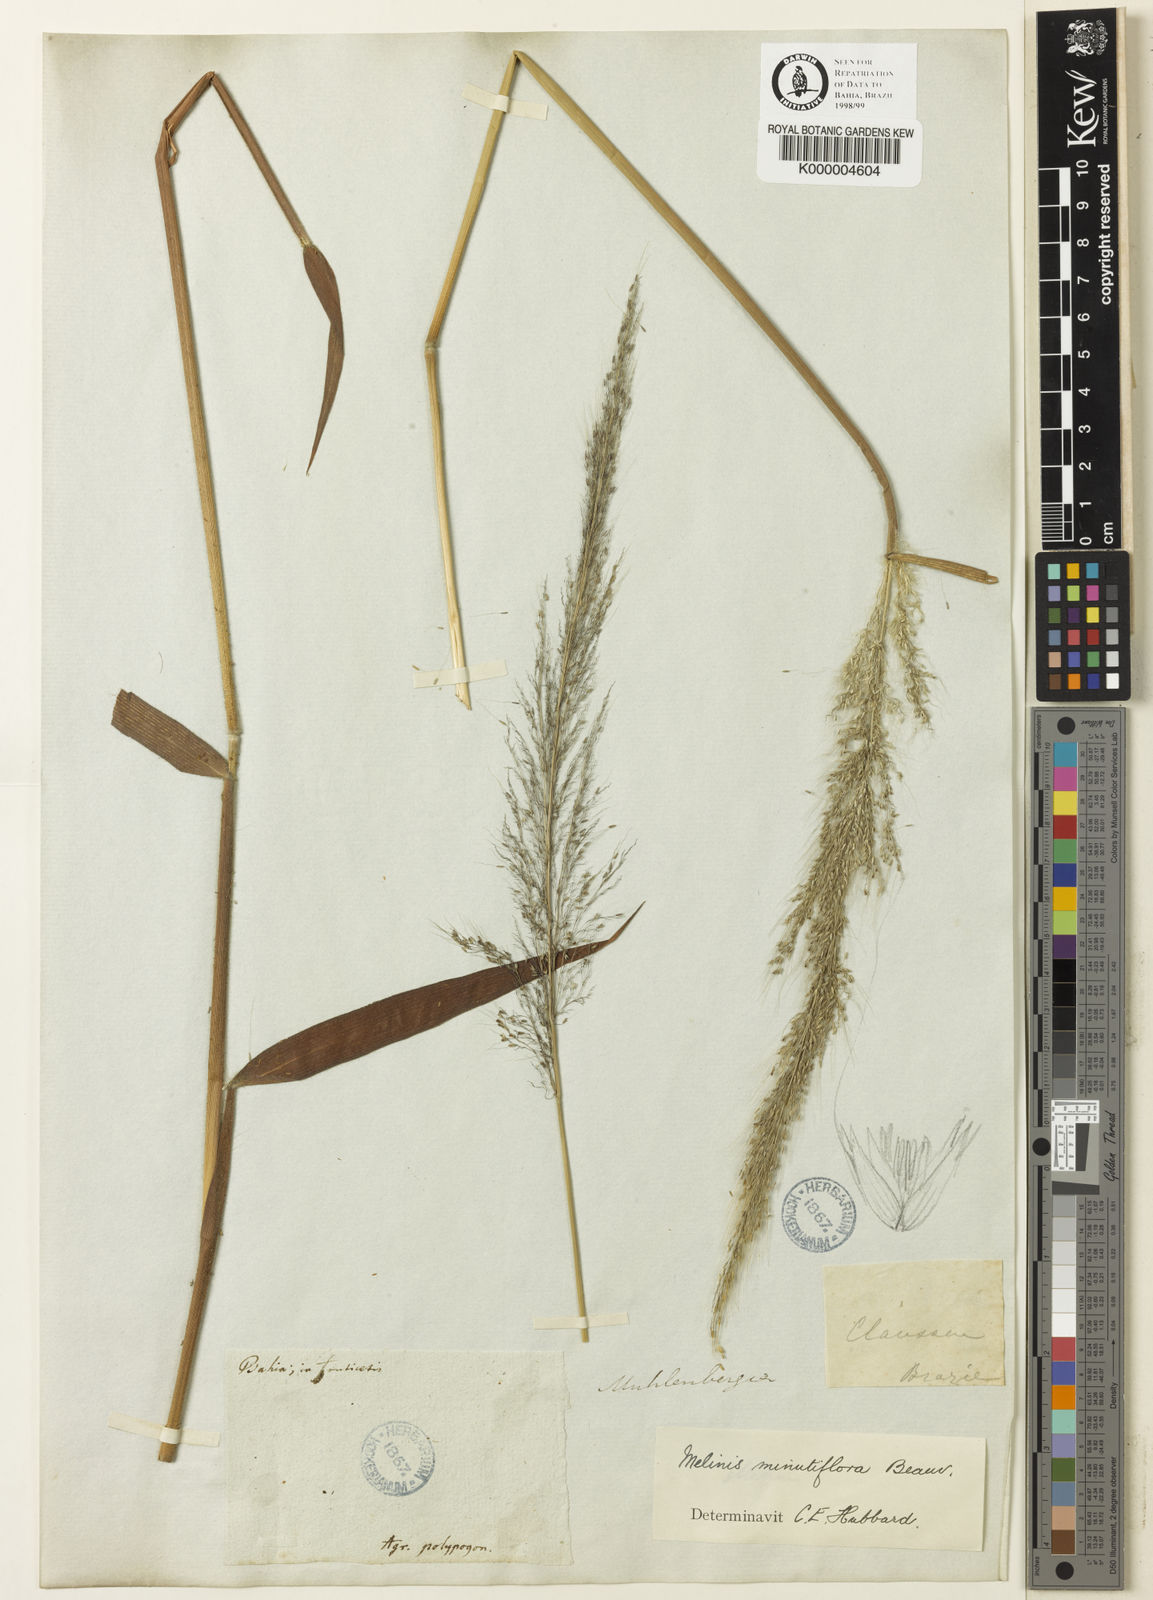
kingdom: Plantae
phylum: Tracheophyta
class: Liliopsida
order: Poales
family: Poaceae
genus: Melinis
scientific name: Melinis minutiflora
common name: Molassesgrass
